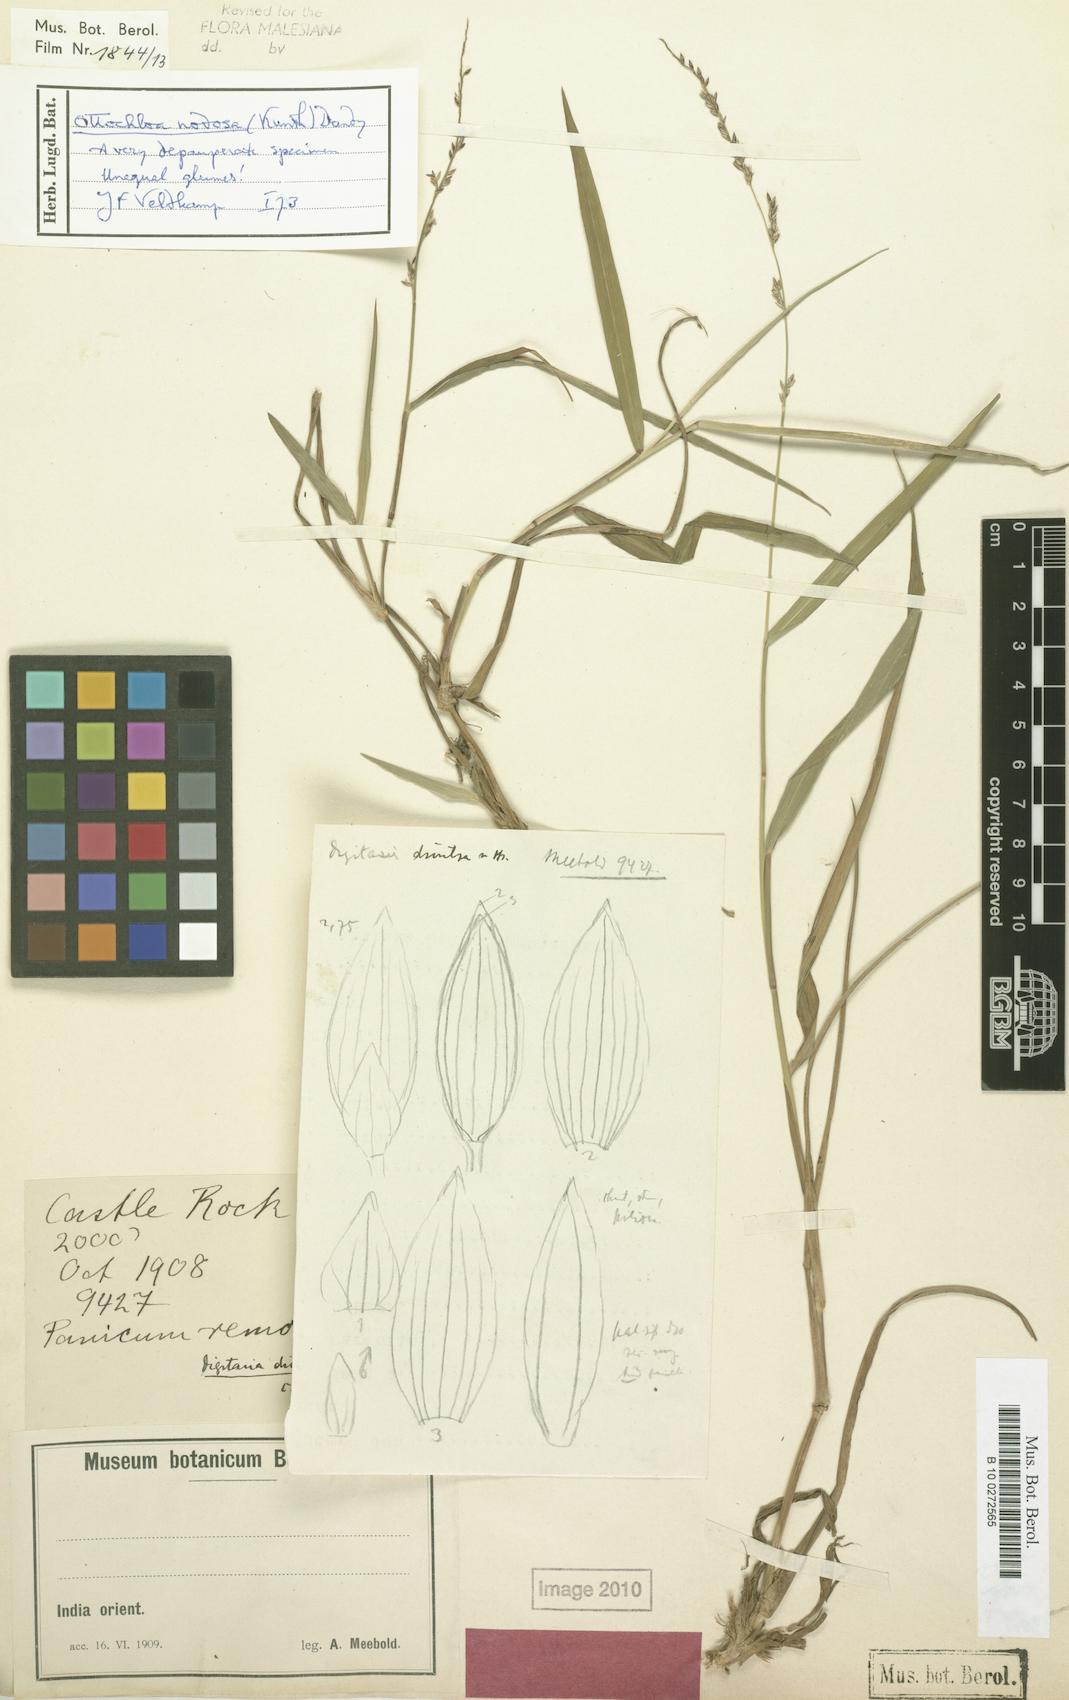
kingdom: Plantae
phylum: Tracheophyta
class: Liliopsida
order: Poales
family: Poaceae
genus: Ottochloa
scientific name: Ottochloa nodosa
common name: Slender-panic grass
